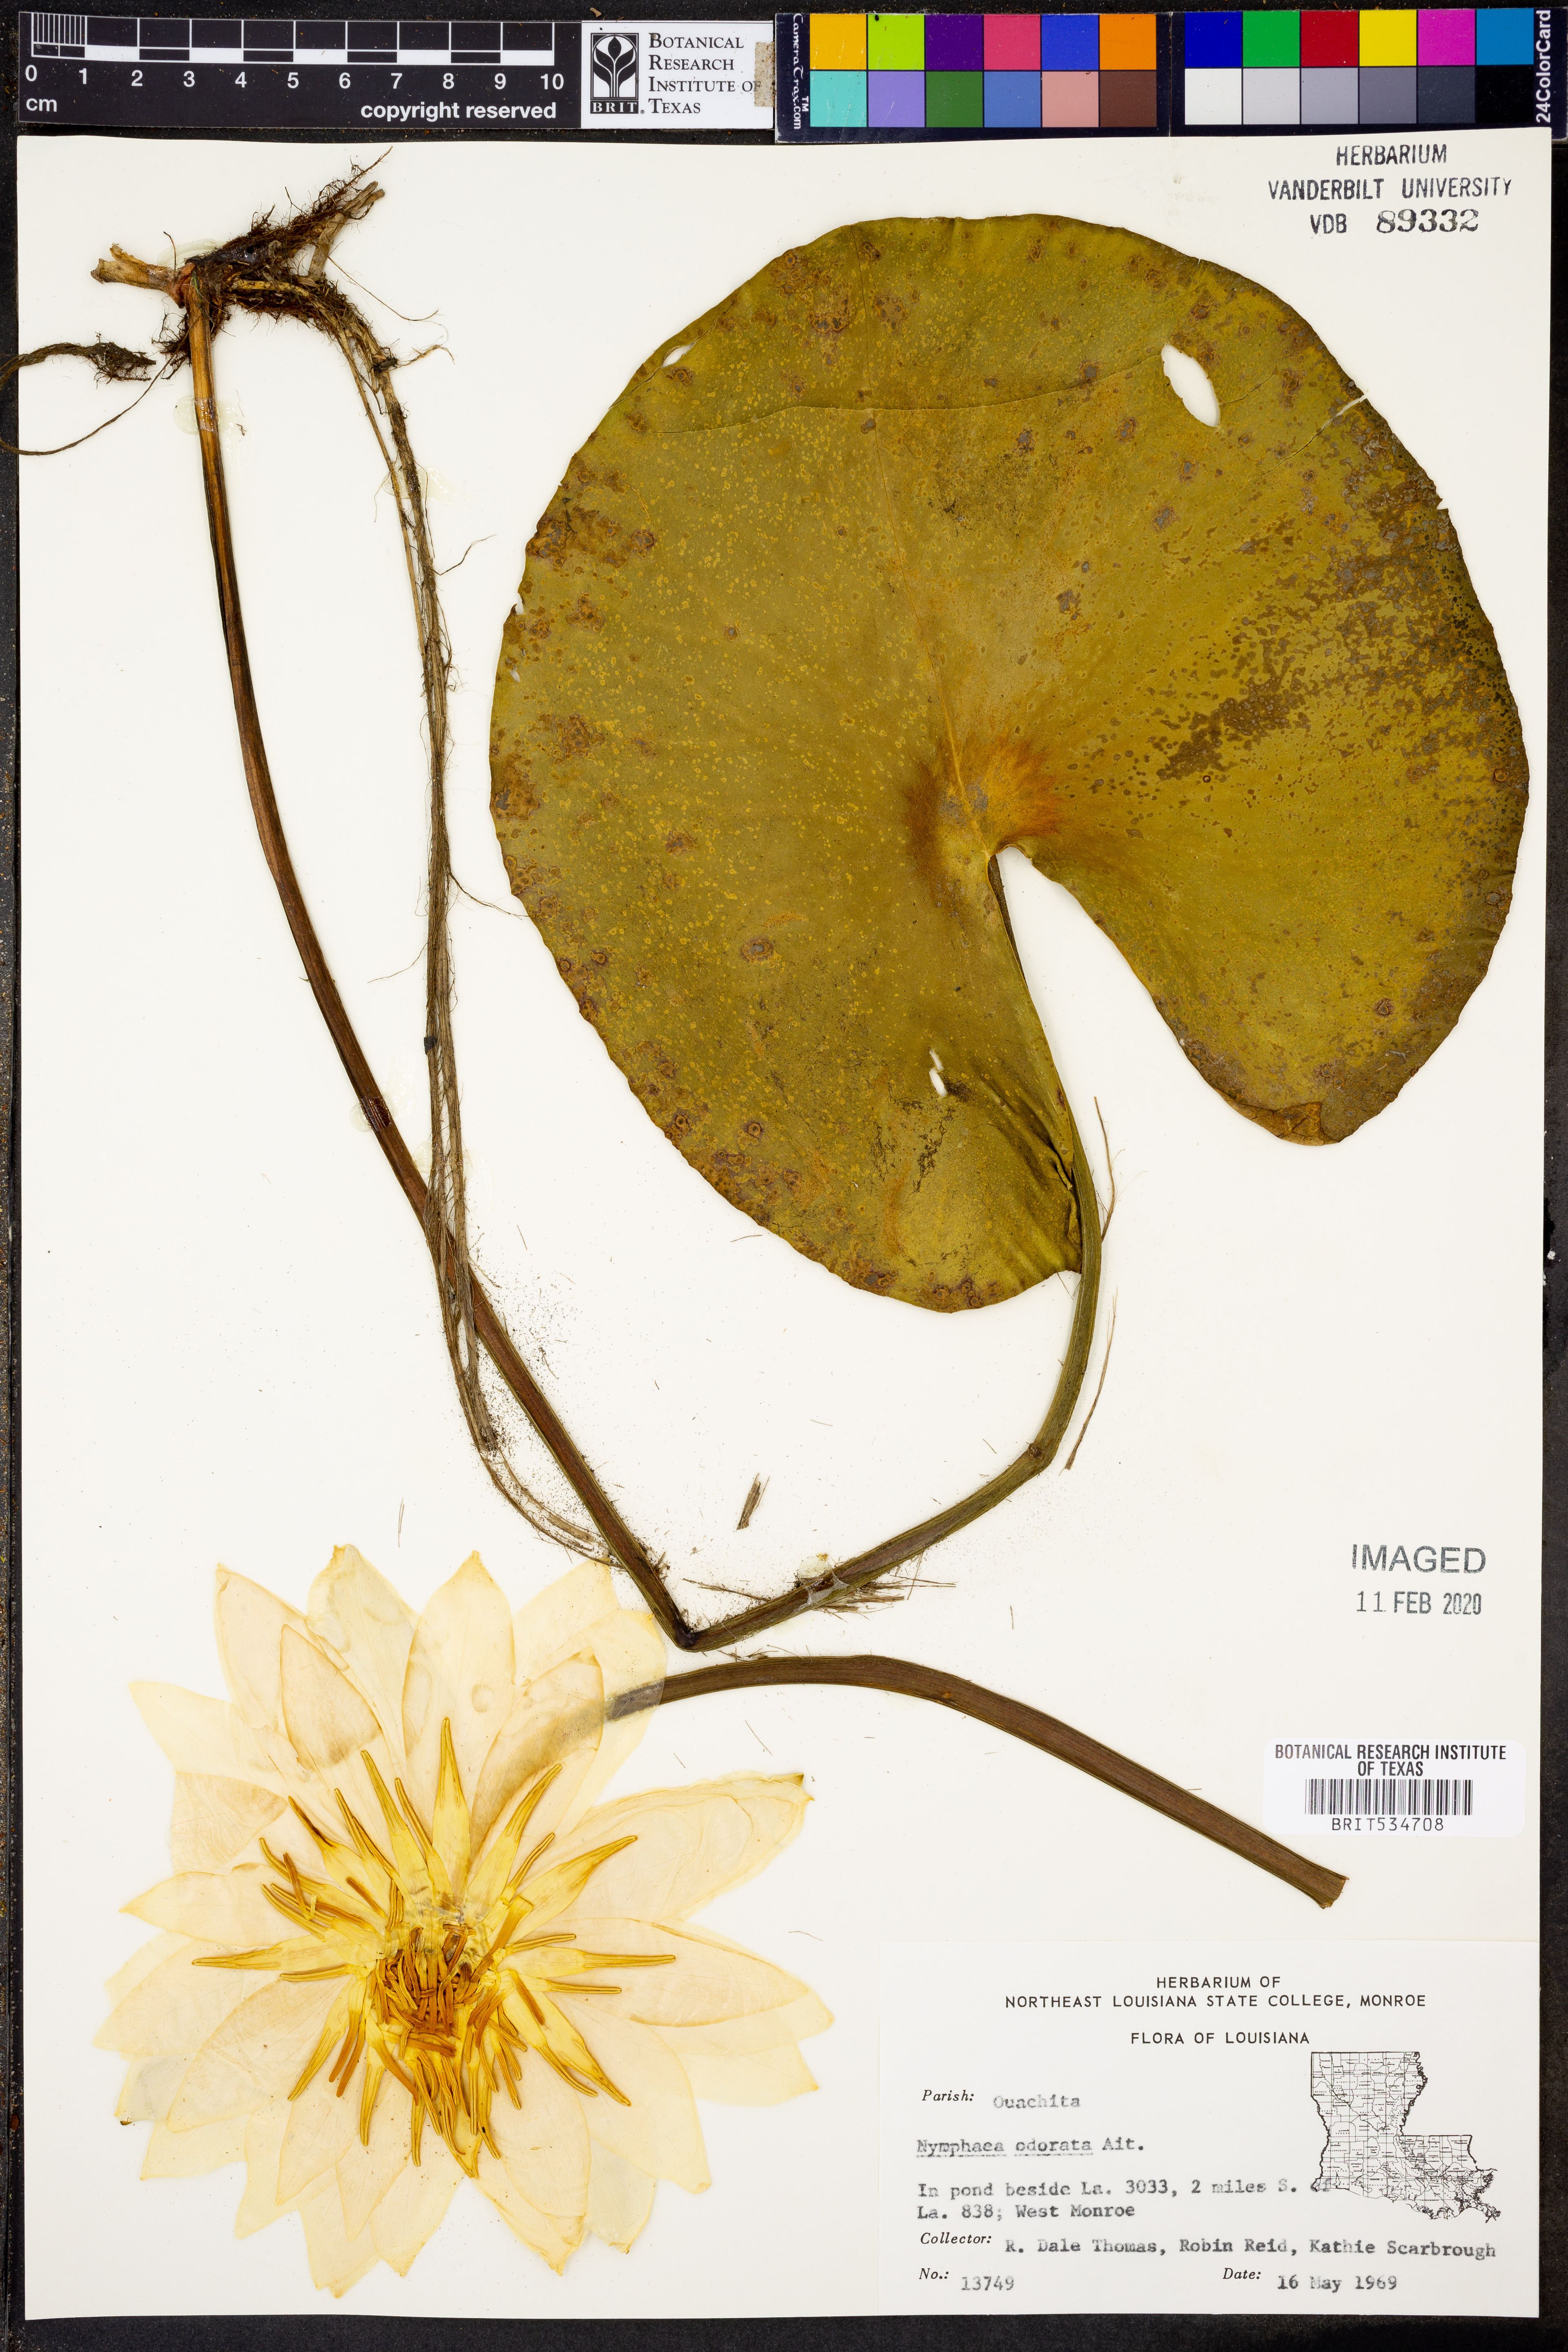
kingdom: Plantae
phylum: Tracheophyta
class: Magnoliopsida
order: Nymphaeales
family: Nymphaeaceae
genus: Nymphaea
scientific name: Nymphaea odorata
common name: Fragrant water-lily
